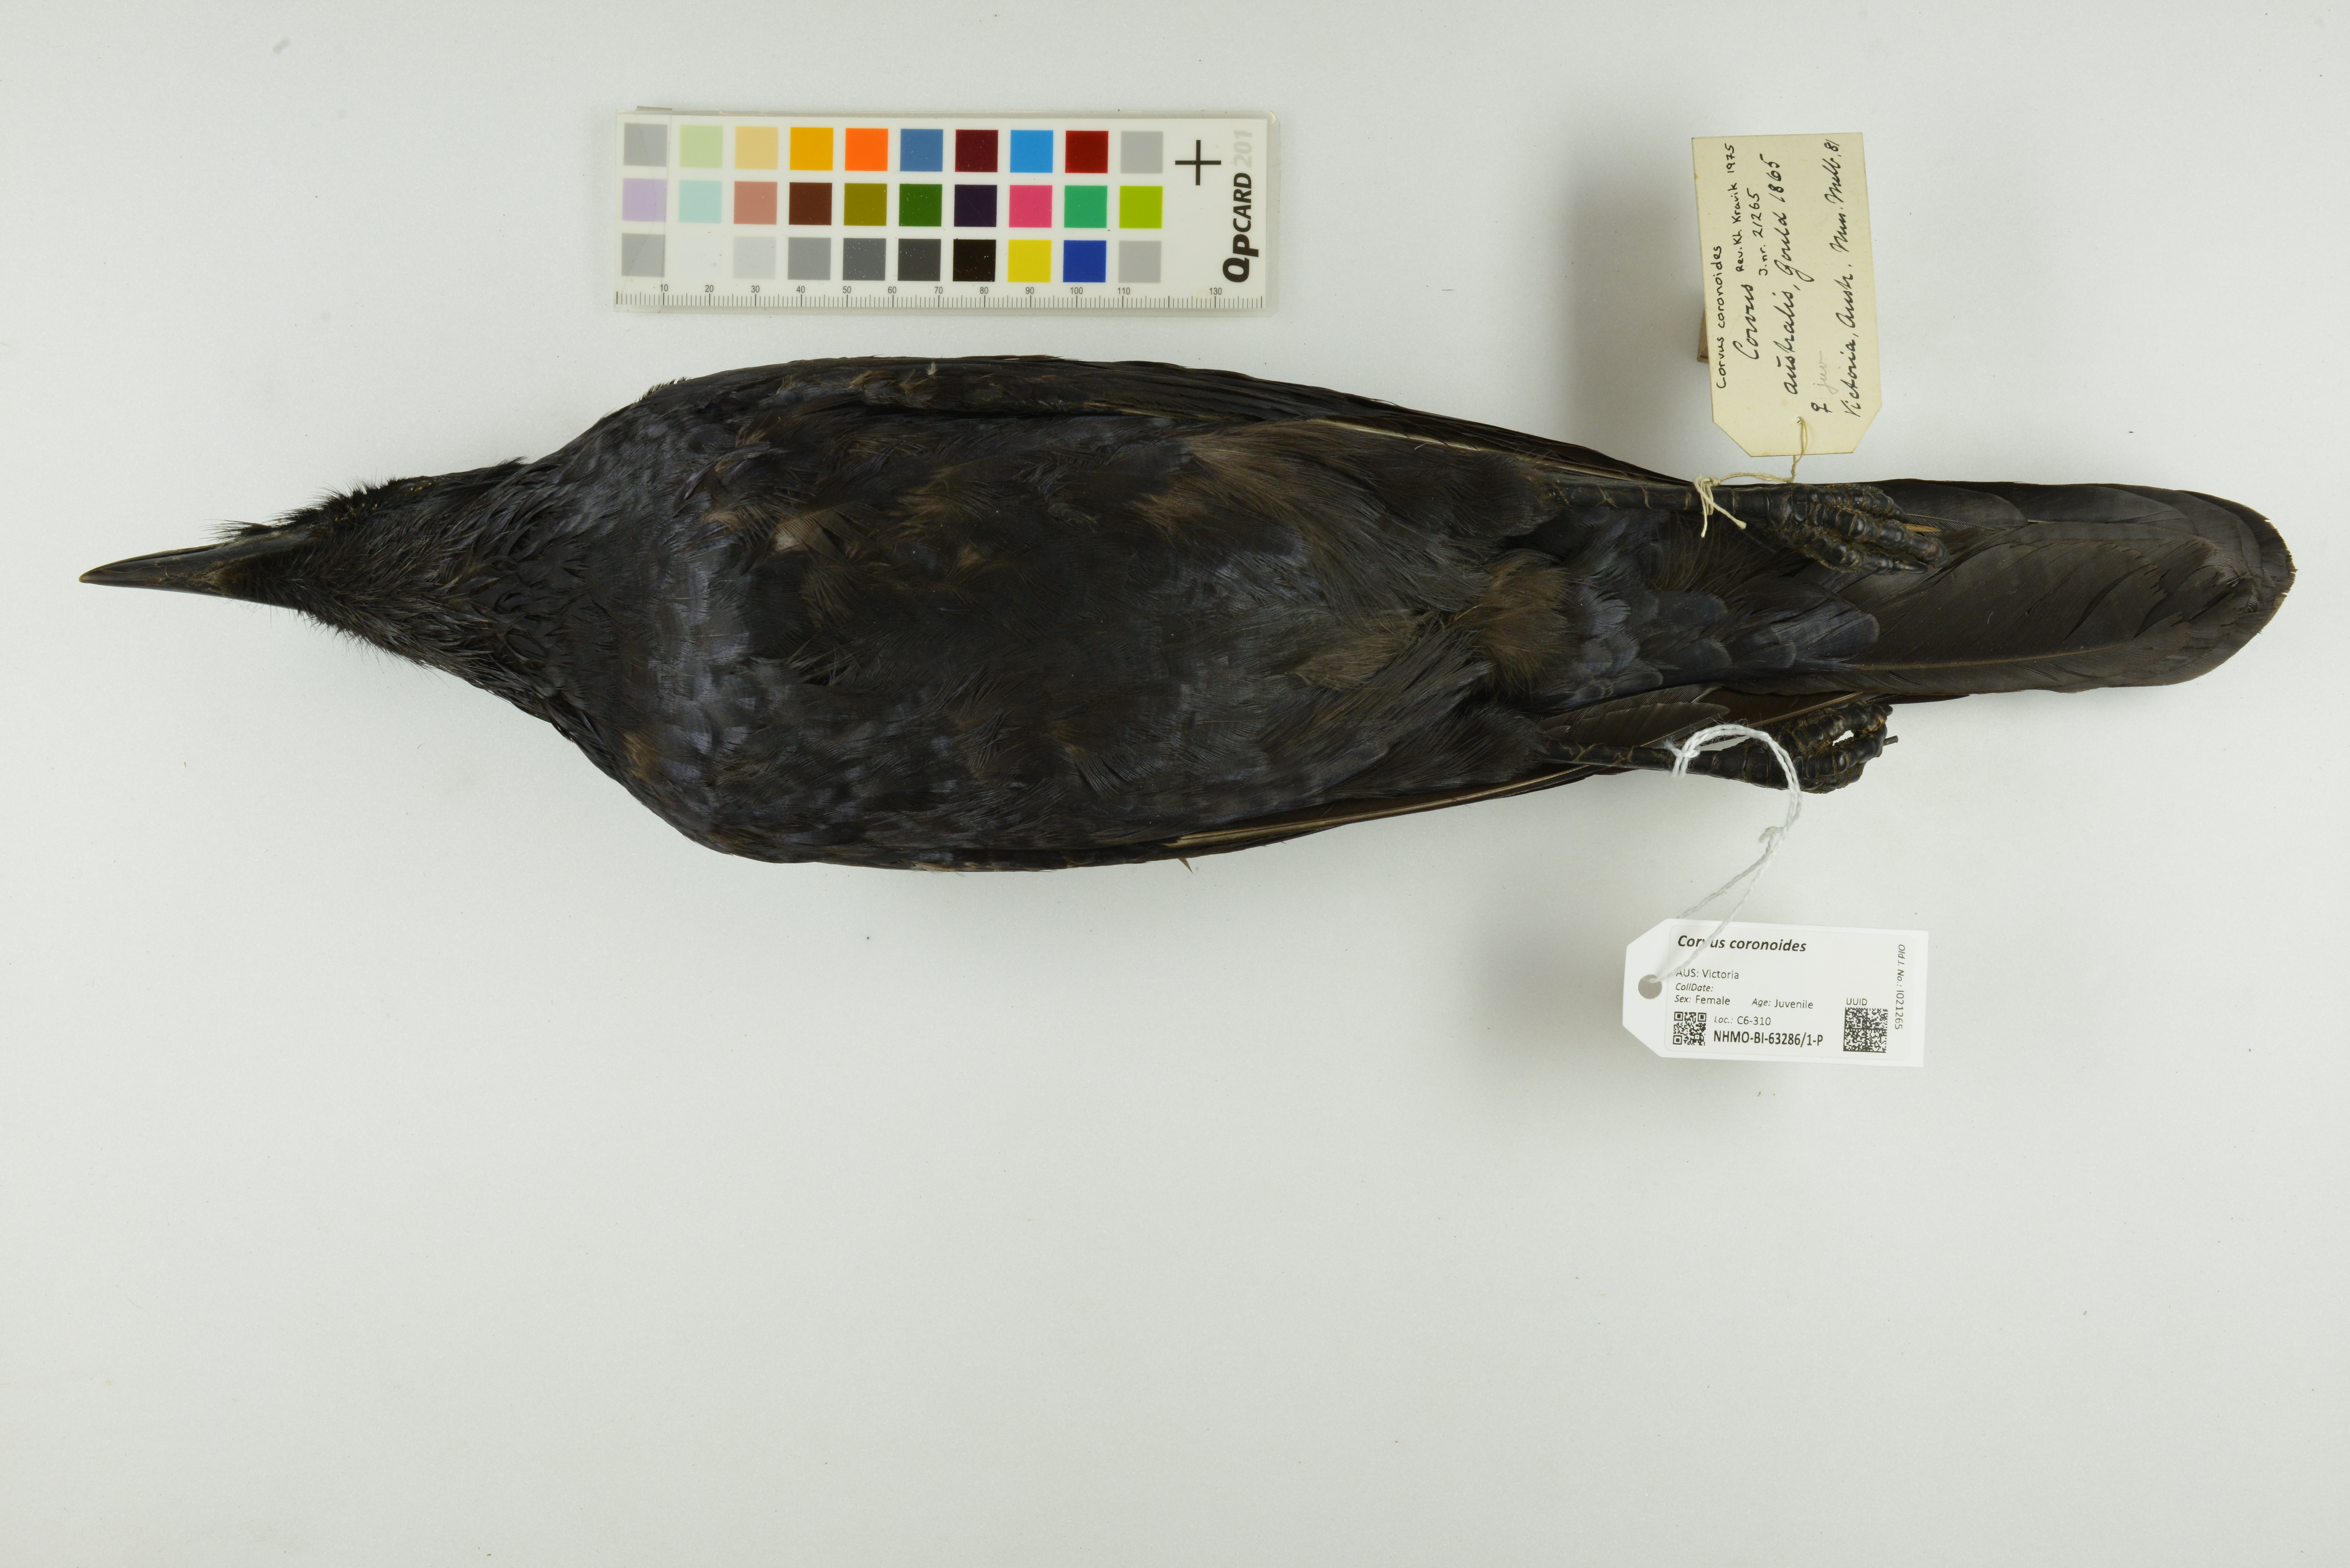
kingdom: Animalia
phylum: Chordata
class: Aves
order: Passeriformes
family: Corvidae
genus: Corvus
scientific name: Corvus coronoides
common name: Australian raven
